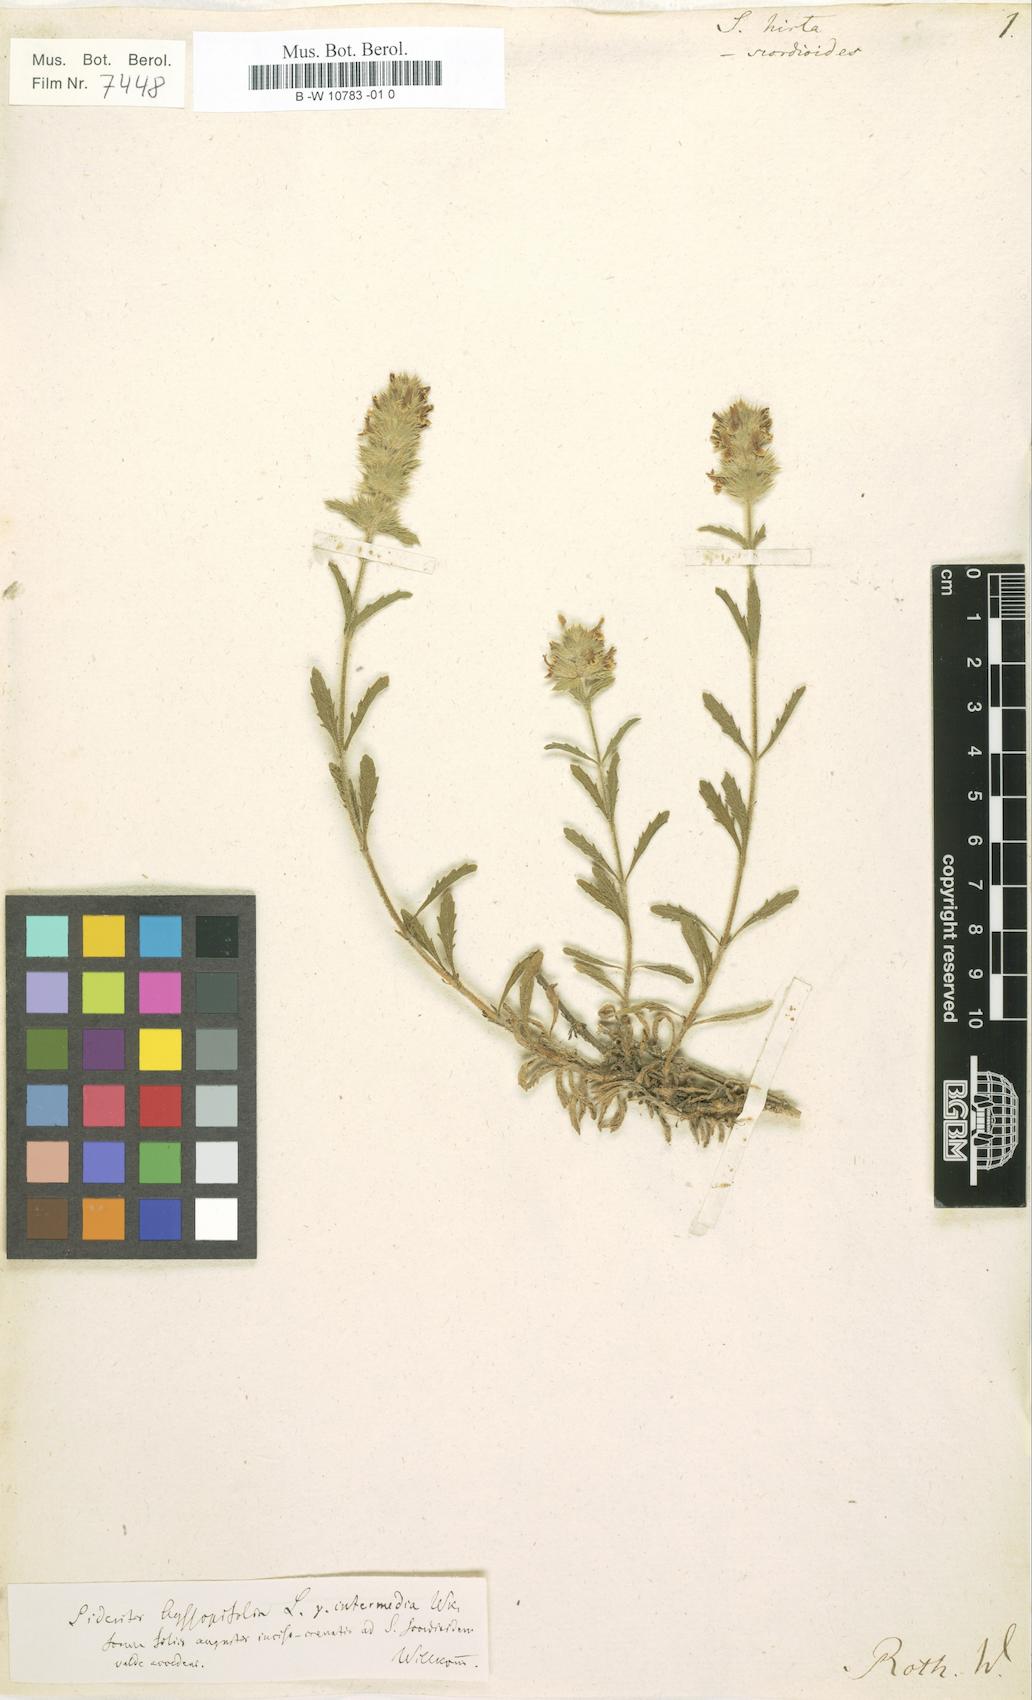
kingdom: Plantae
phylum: Tracheophyta
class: Magnoliopsida
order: Lamiales
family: Lamiaceae
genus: Sideritis
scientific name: Sideritis fruticulosa
